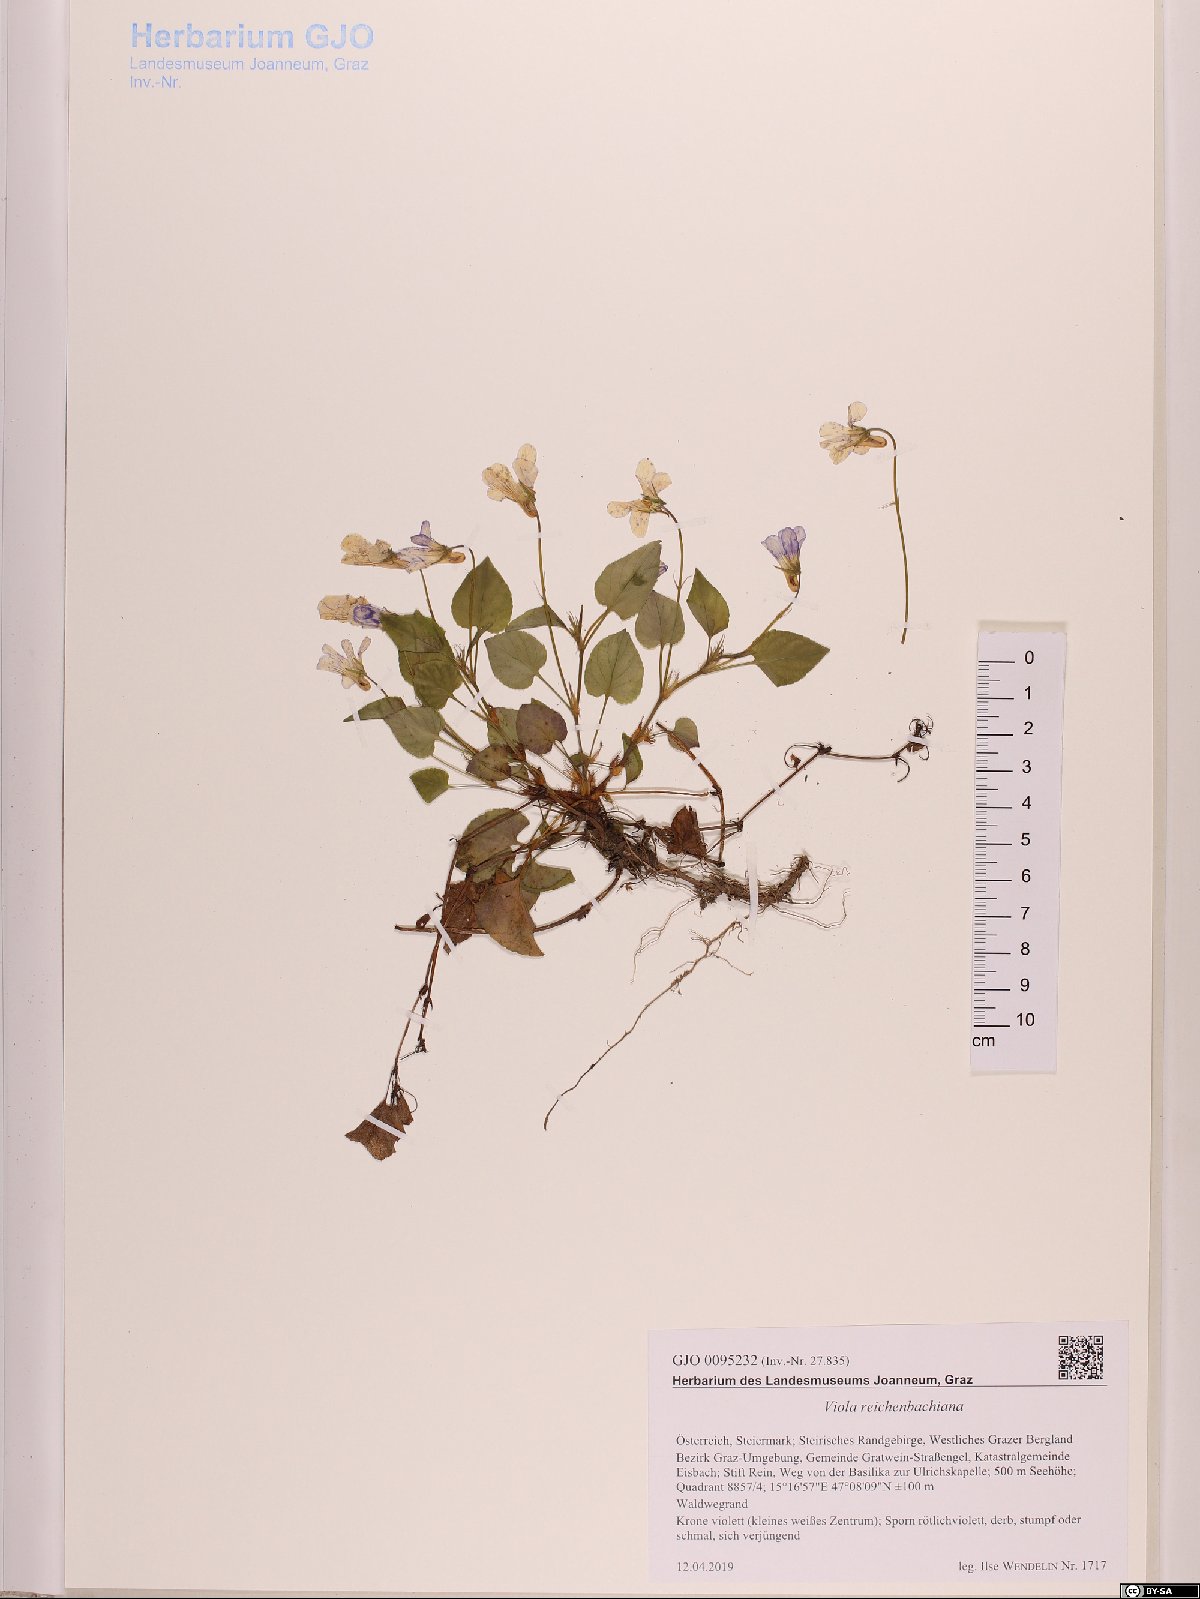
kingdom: Plantae
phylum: Tracheophyta
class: Magnoliopsida
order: Malpighiales
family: Violaceae
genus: Viola
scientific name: Viola reichenbachiana
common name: Early dog-violet
